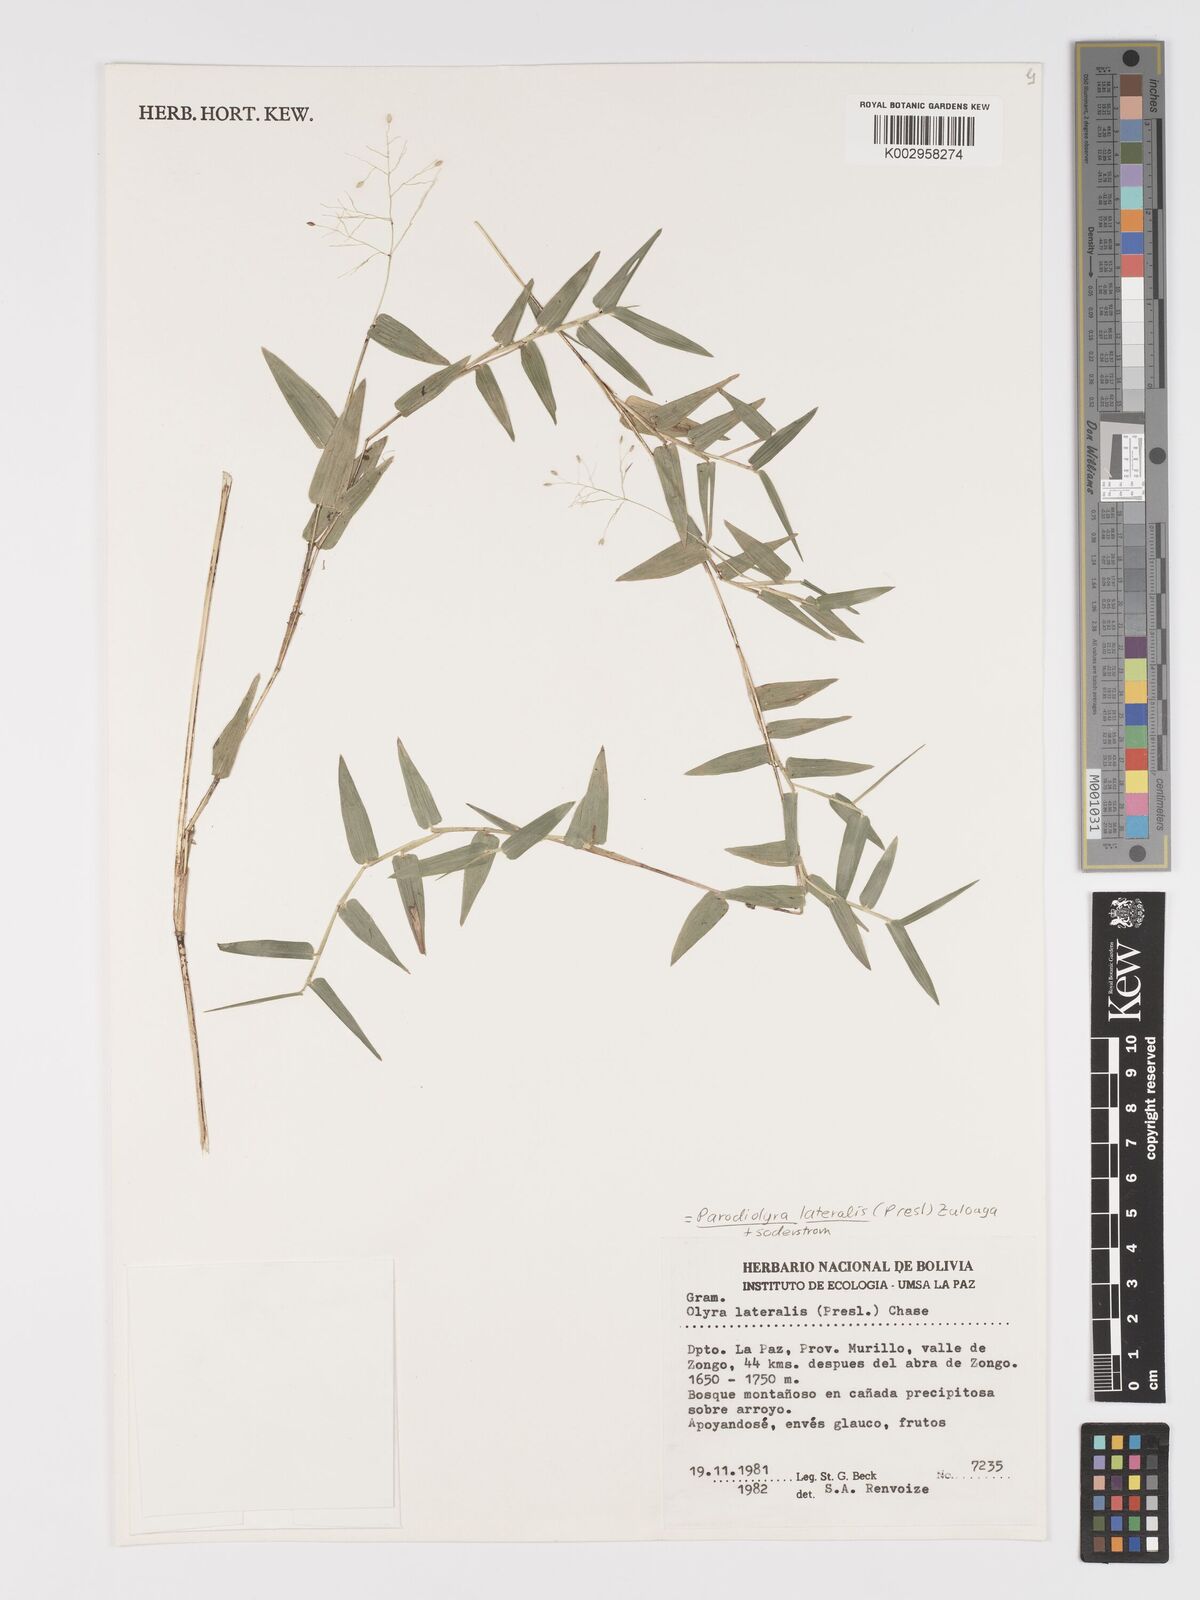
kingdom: Plantae
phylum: Tracheophyta
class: Liliopsida
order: Poales
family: Poaceae
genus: Parodiolyra
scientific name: Parodiolyra lateralis
